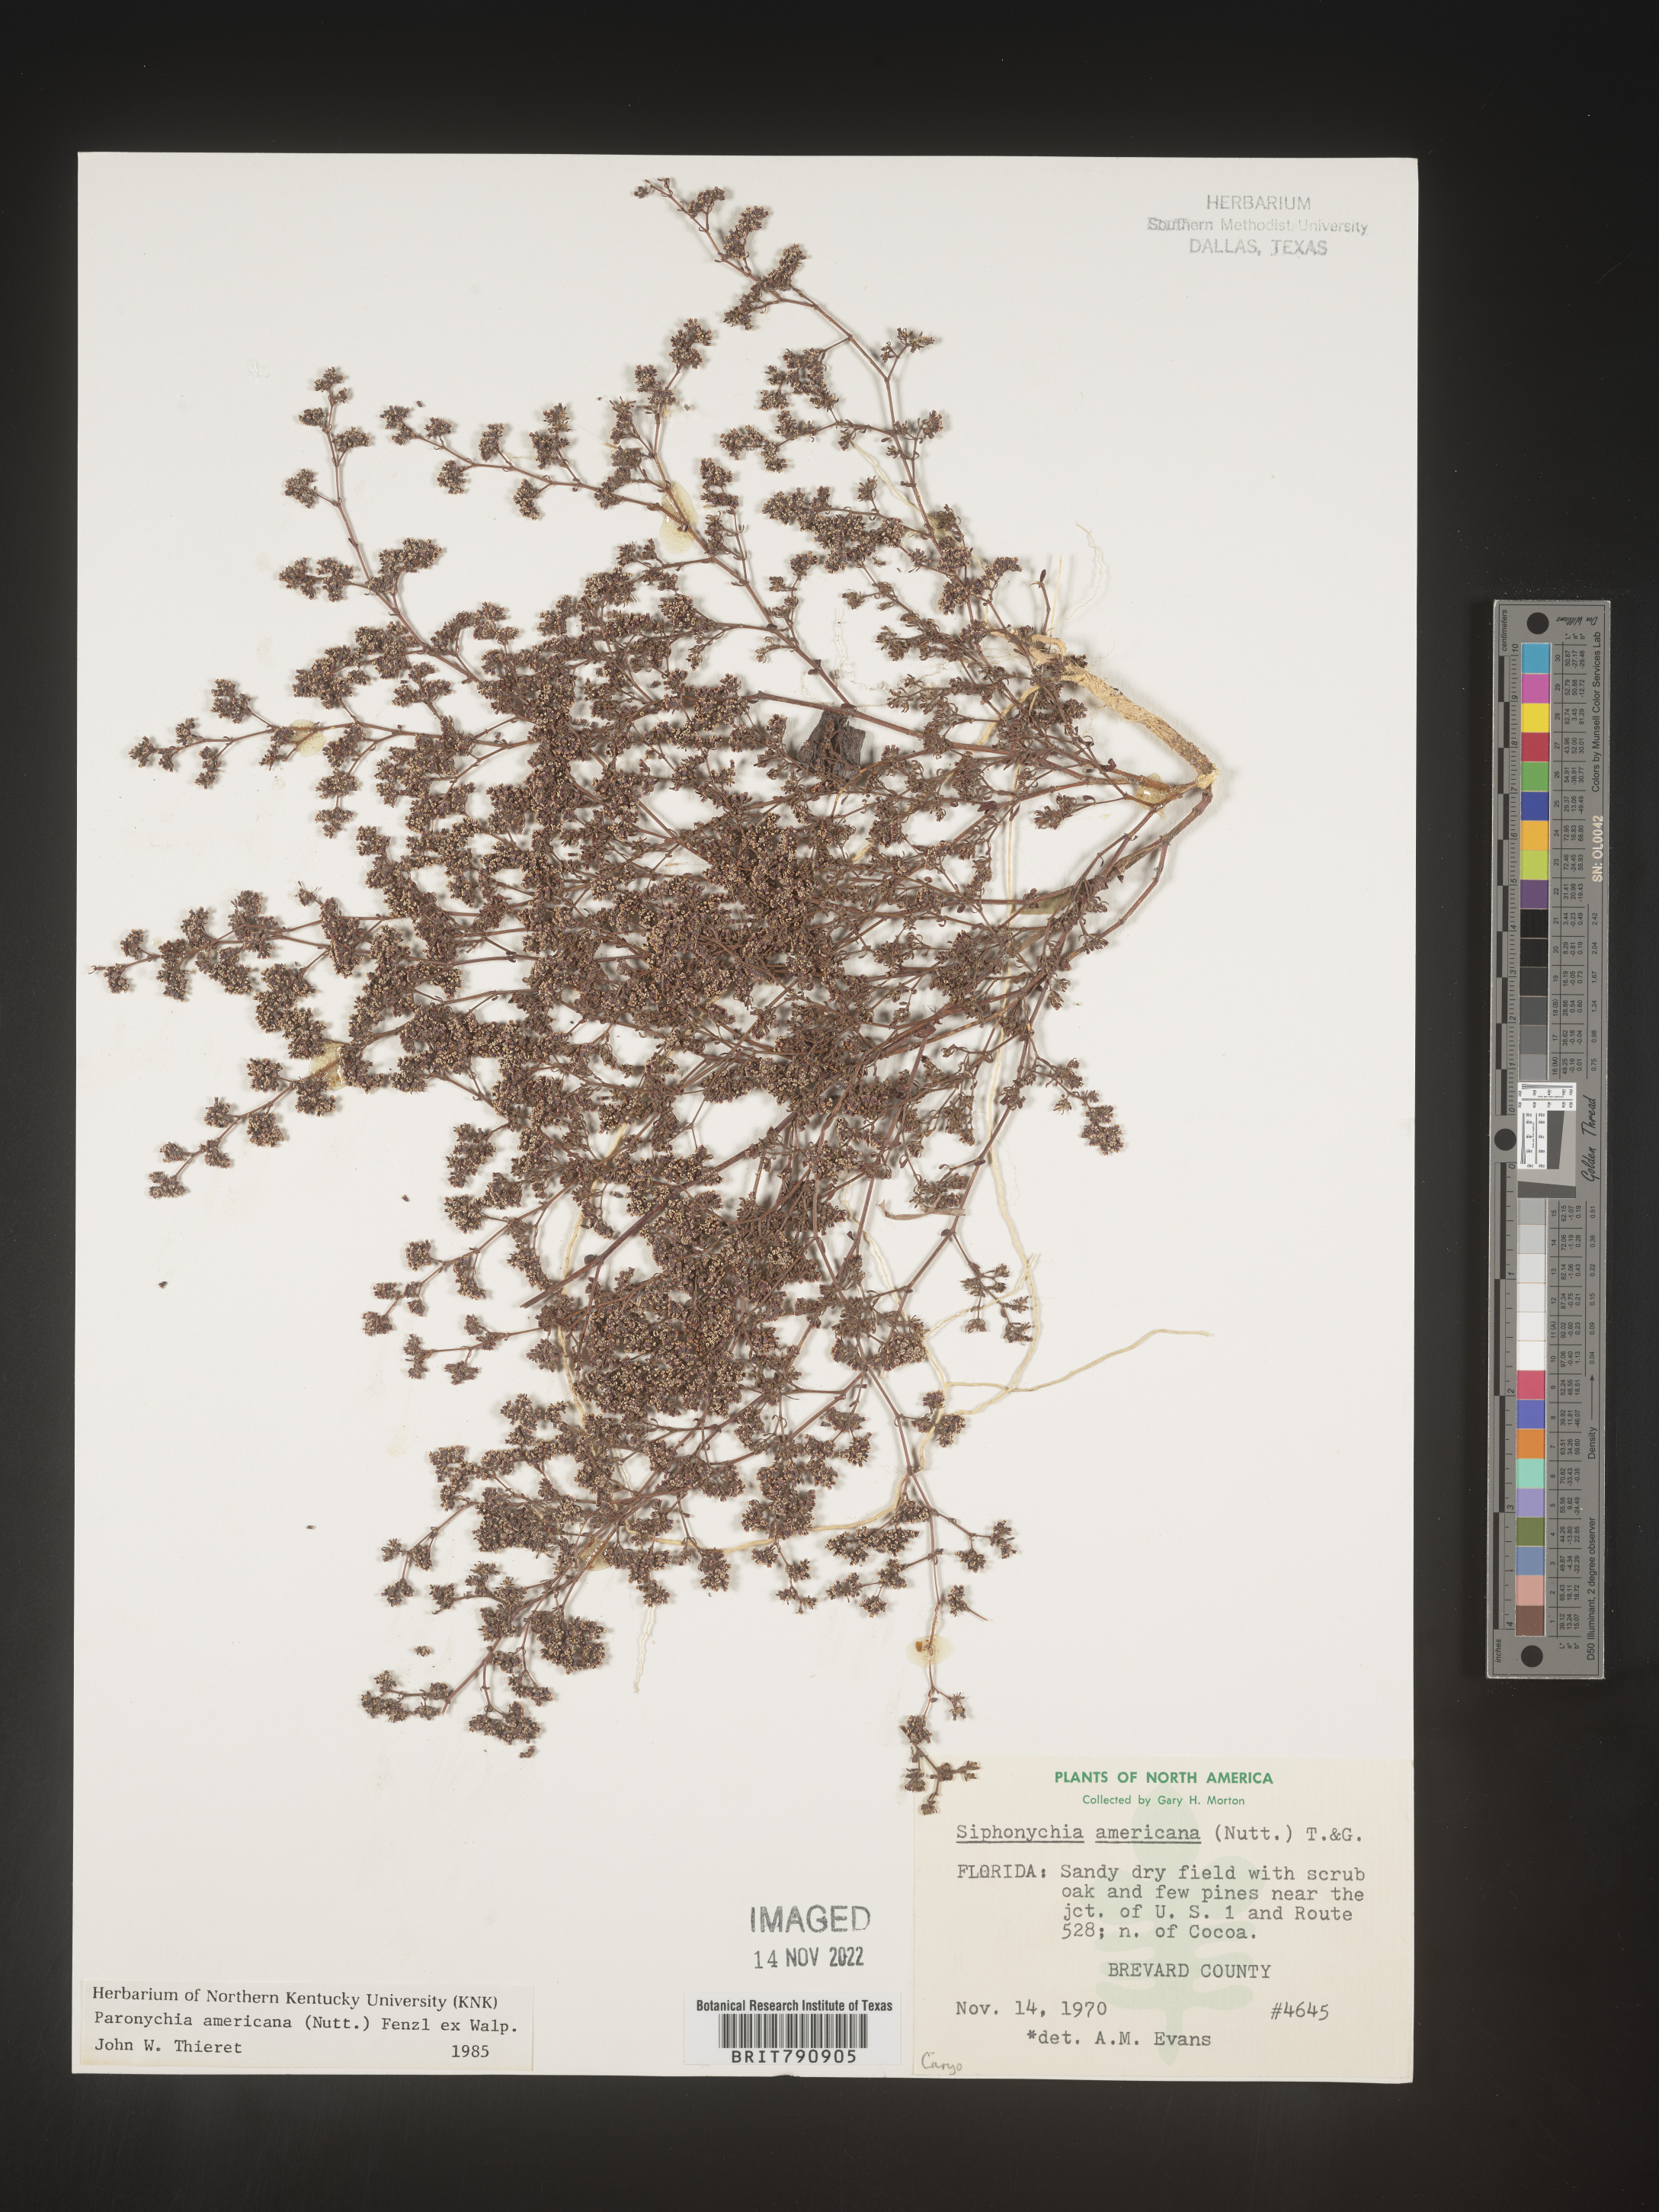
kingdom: Plantae
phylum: Tracheophyta
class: Magnoliopsida
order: Caryophyllales
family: Caryophyllaceae
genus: Paronychia
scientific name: Paronychia americana
